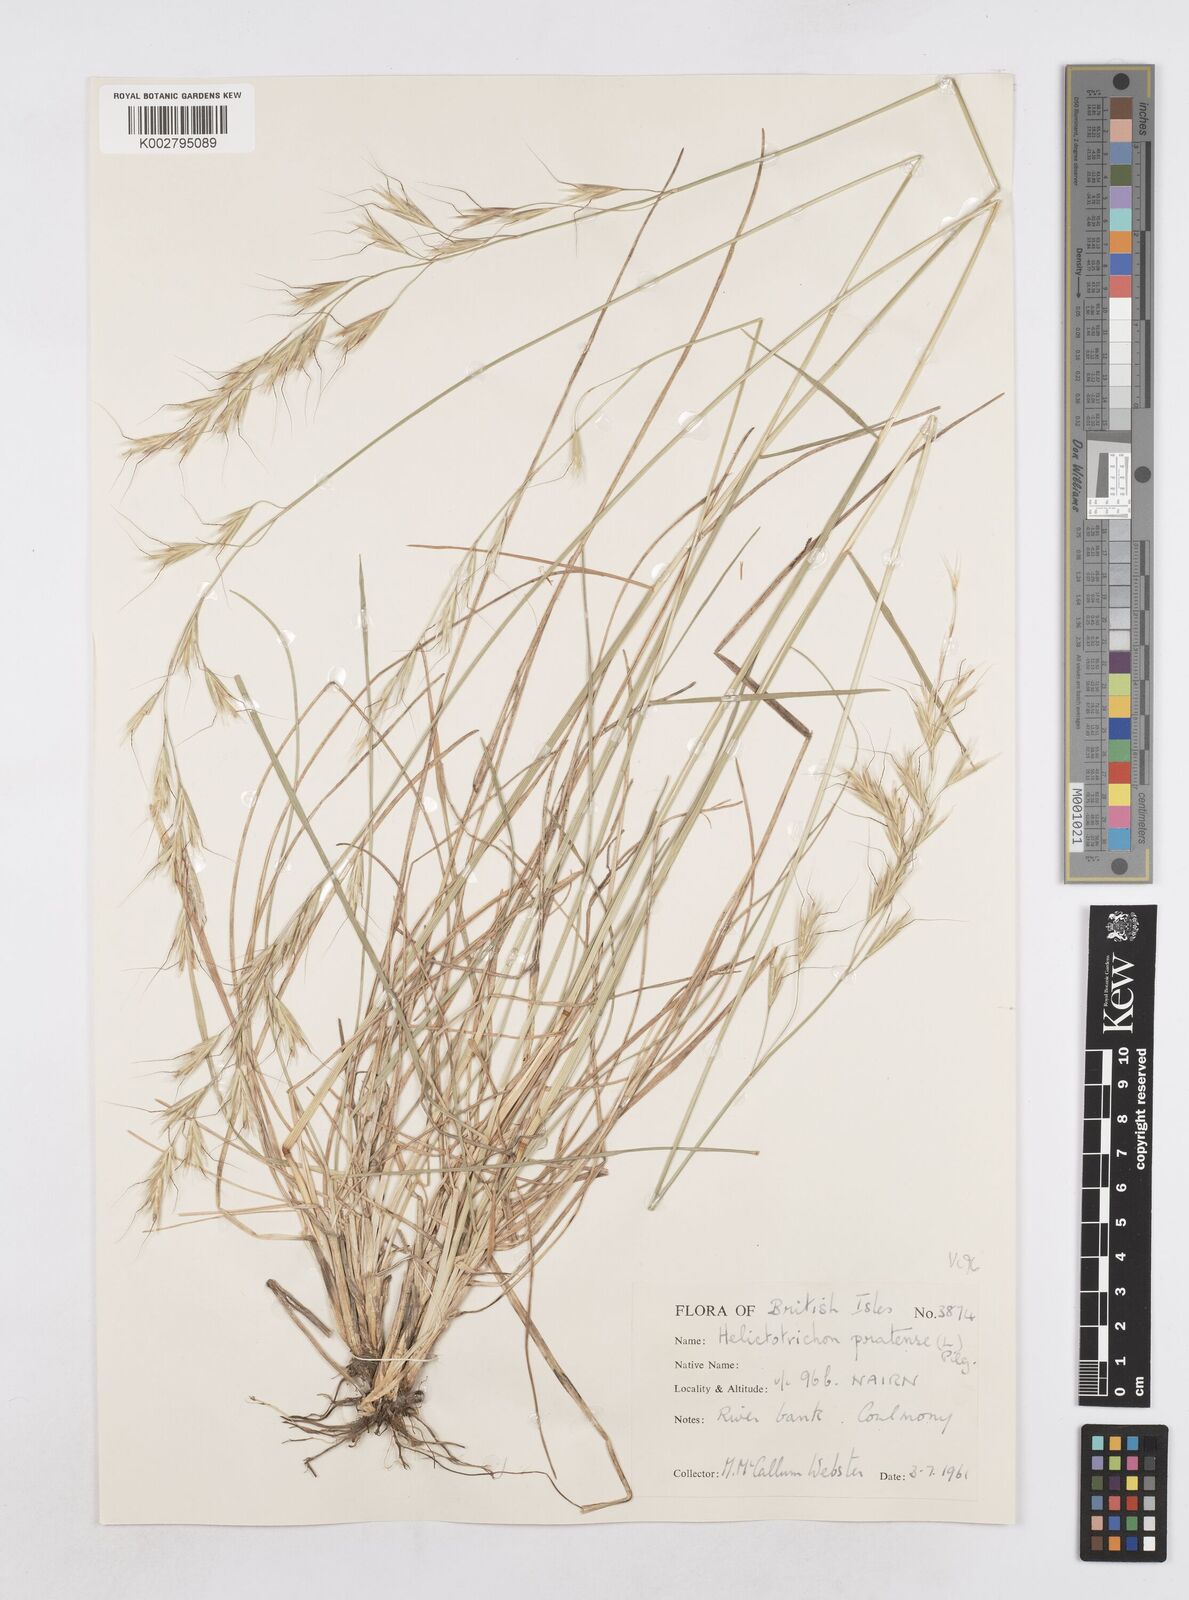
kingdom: Plantae
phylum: Tracheophyta
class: Liliopsida
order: Poales
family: Poaceae
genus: Helictochloa
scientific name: Helictochloa pratensis
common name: Meadow oat grass
